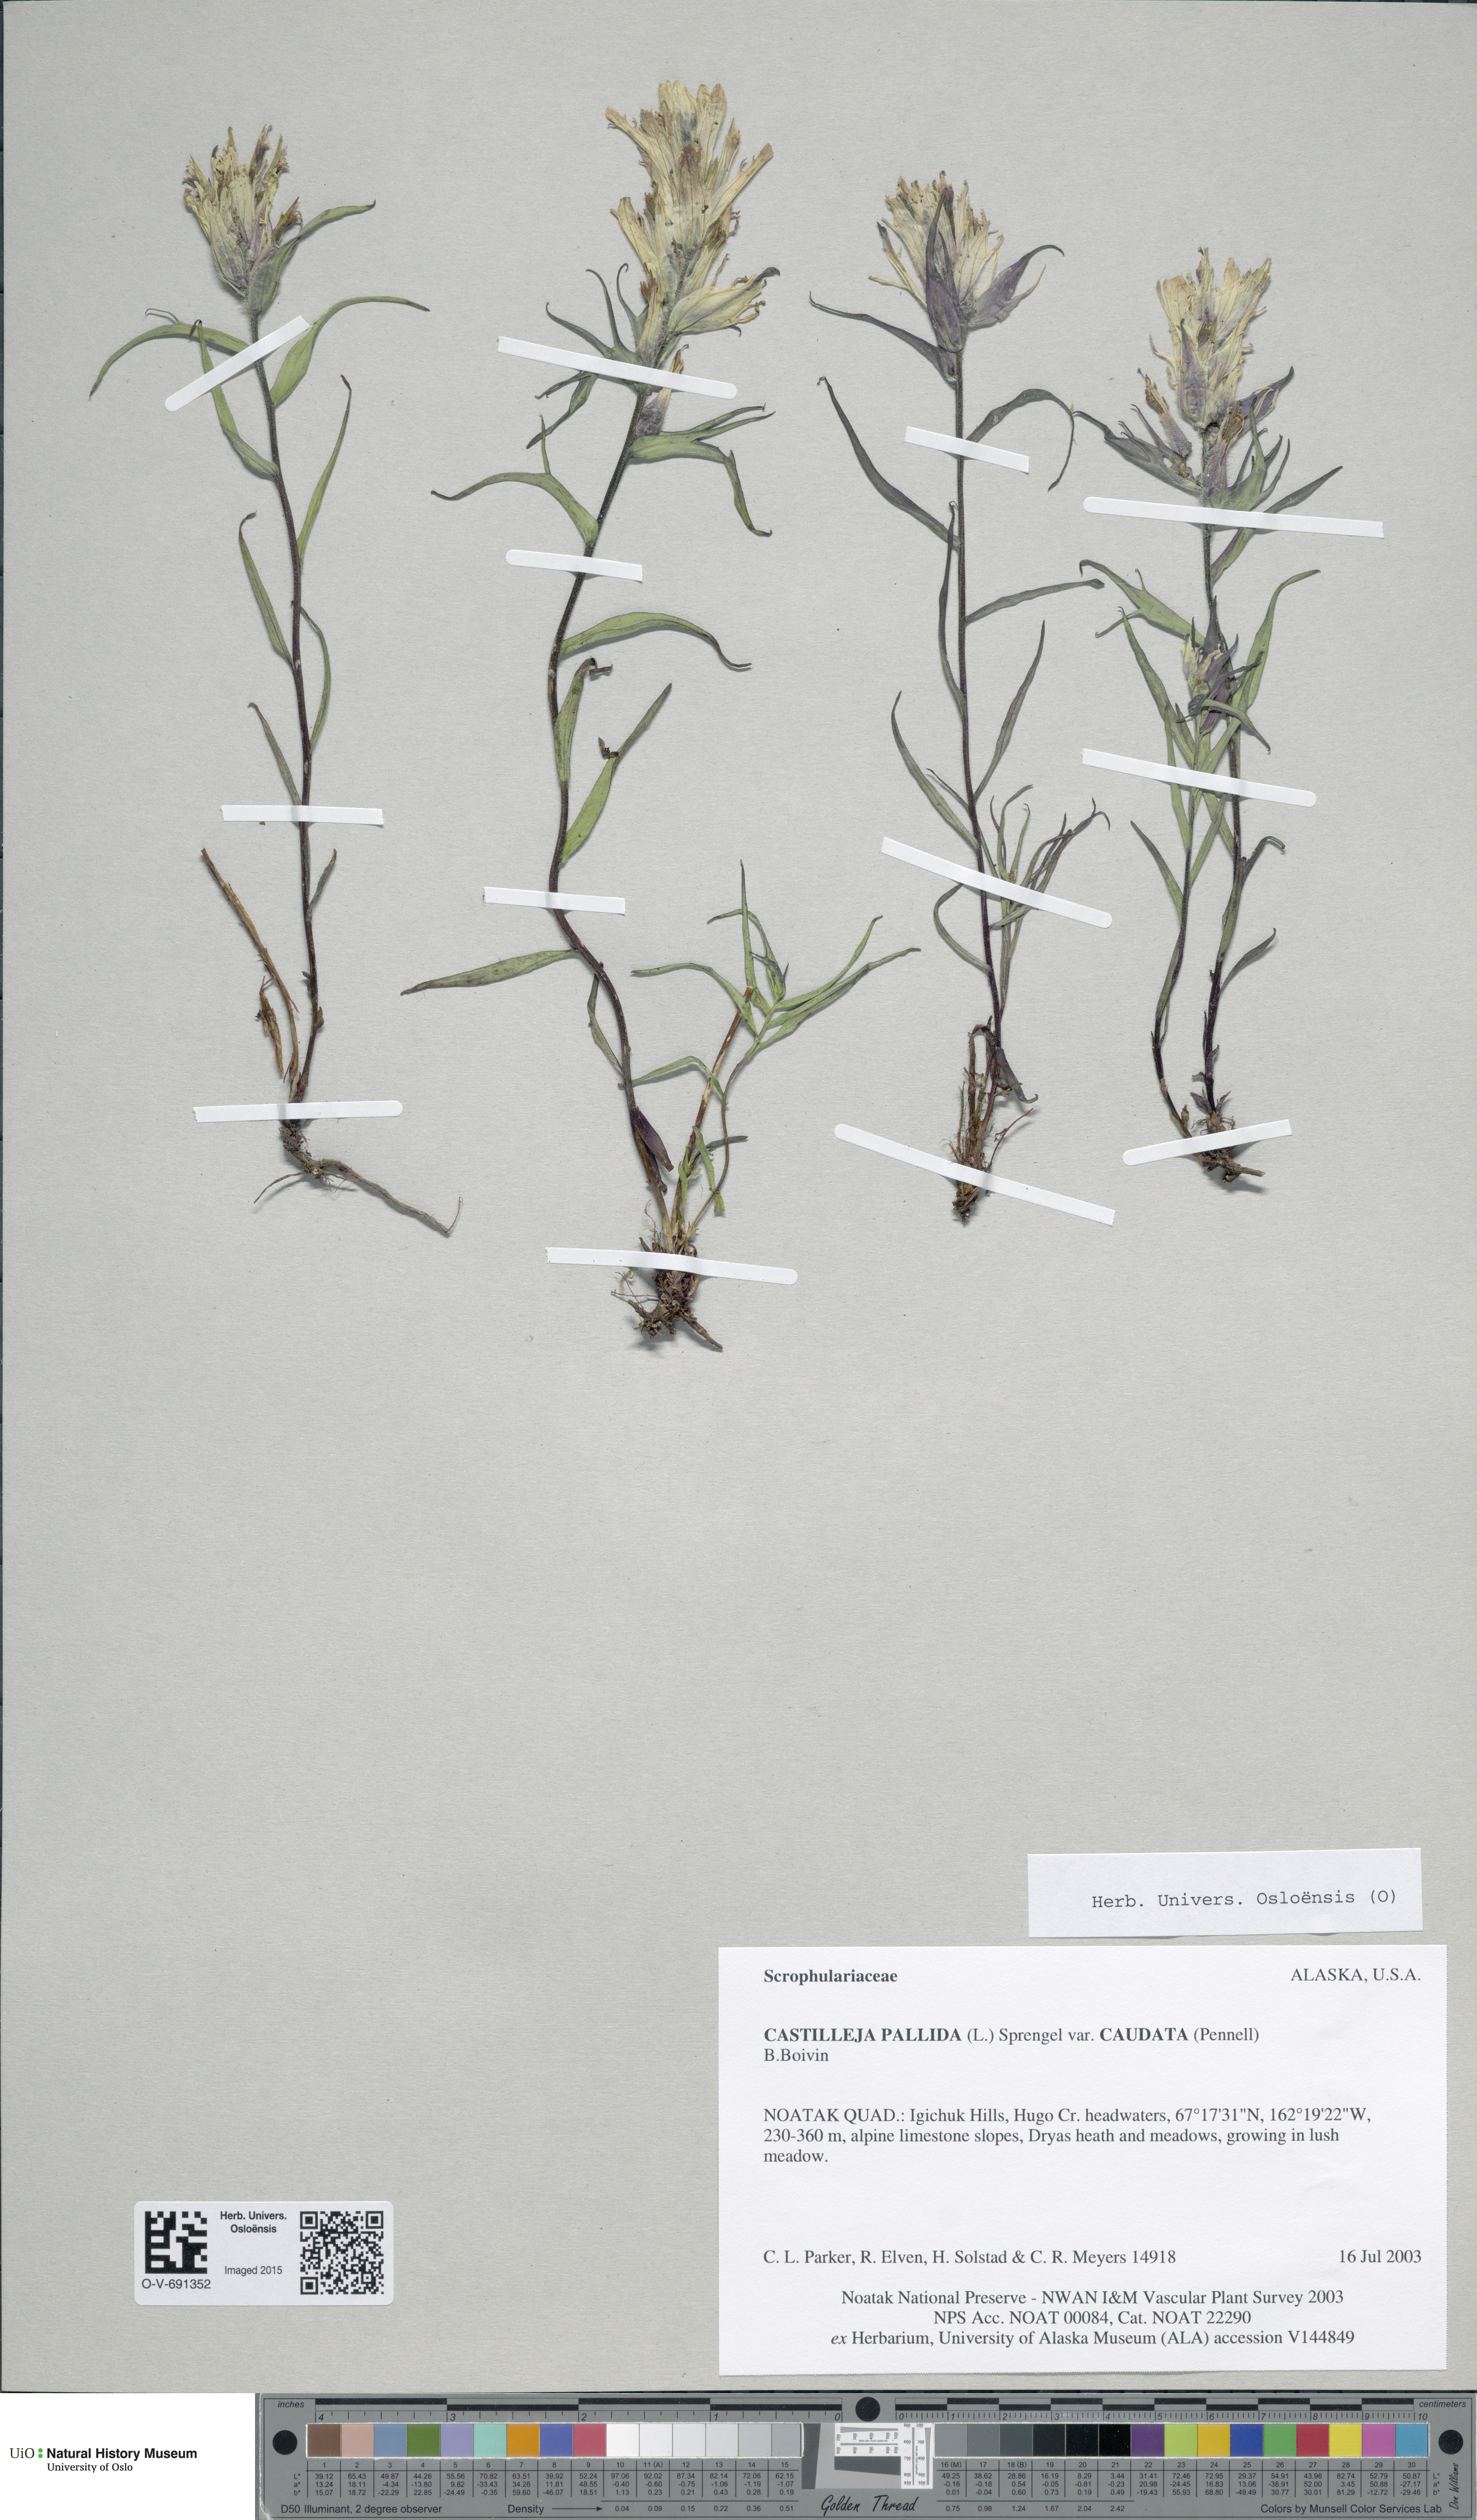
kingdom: Plantae
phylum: Tracheophyta
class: Magnoliopsida
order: Lamiales
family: Orobanchaceae
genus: Castilleja
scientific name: Castilleja pallida
